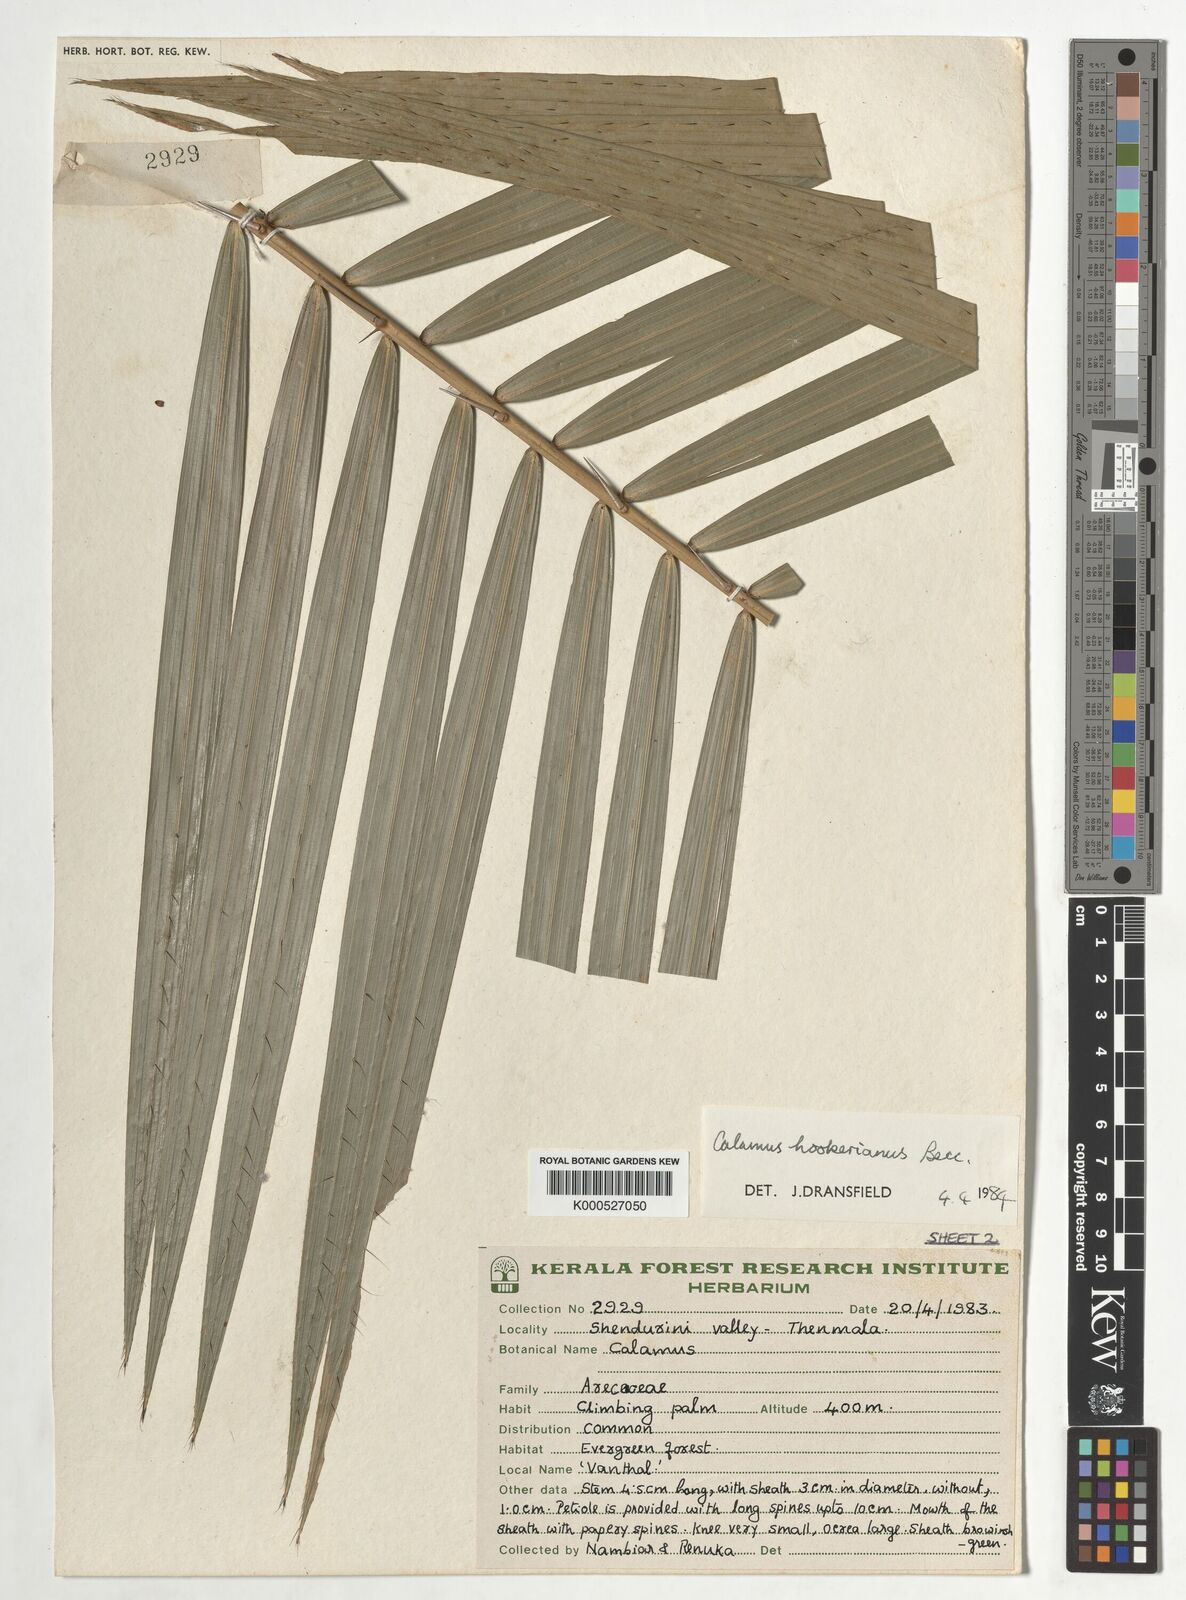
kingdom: Plantae
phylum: Tracheophyta
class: Liliopsida
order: Arecales
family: Arecaceae
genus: Calamus
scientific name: Calamus hookerianus
